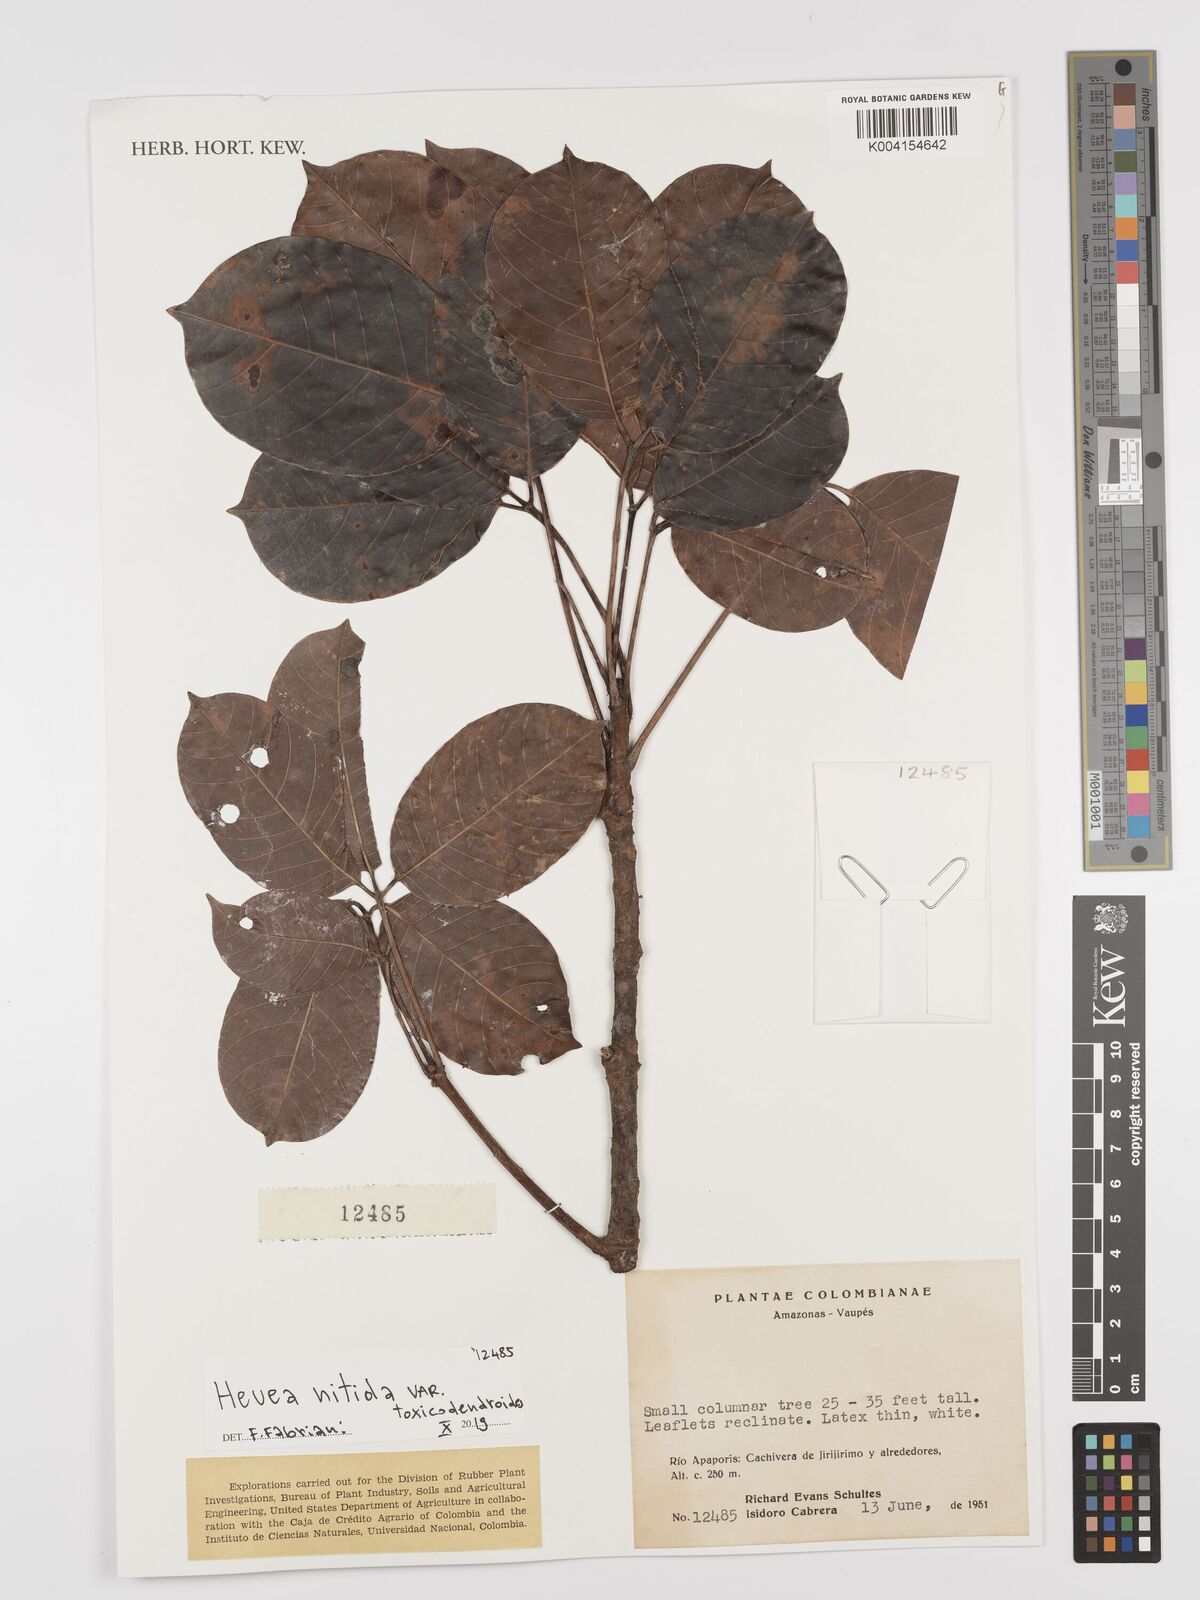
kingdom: Plantae
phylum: Tracheophyta
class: Magnoliopsida
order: Malpighiales
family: Euphorbiaceae
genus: Hevea
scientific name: Hevea nitida
